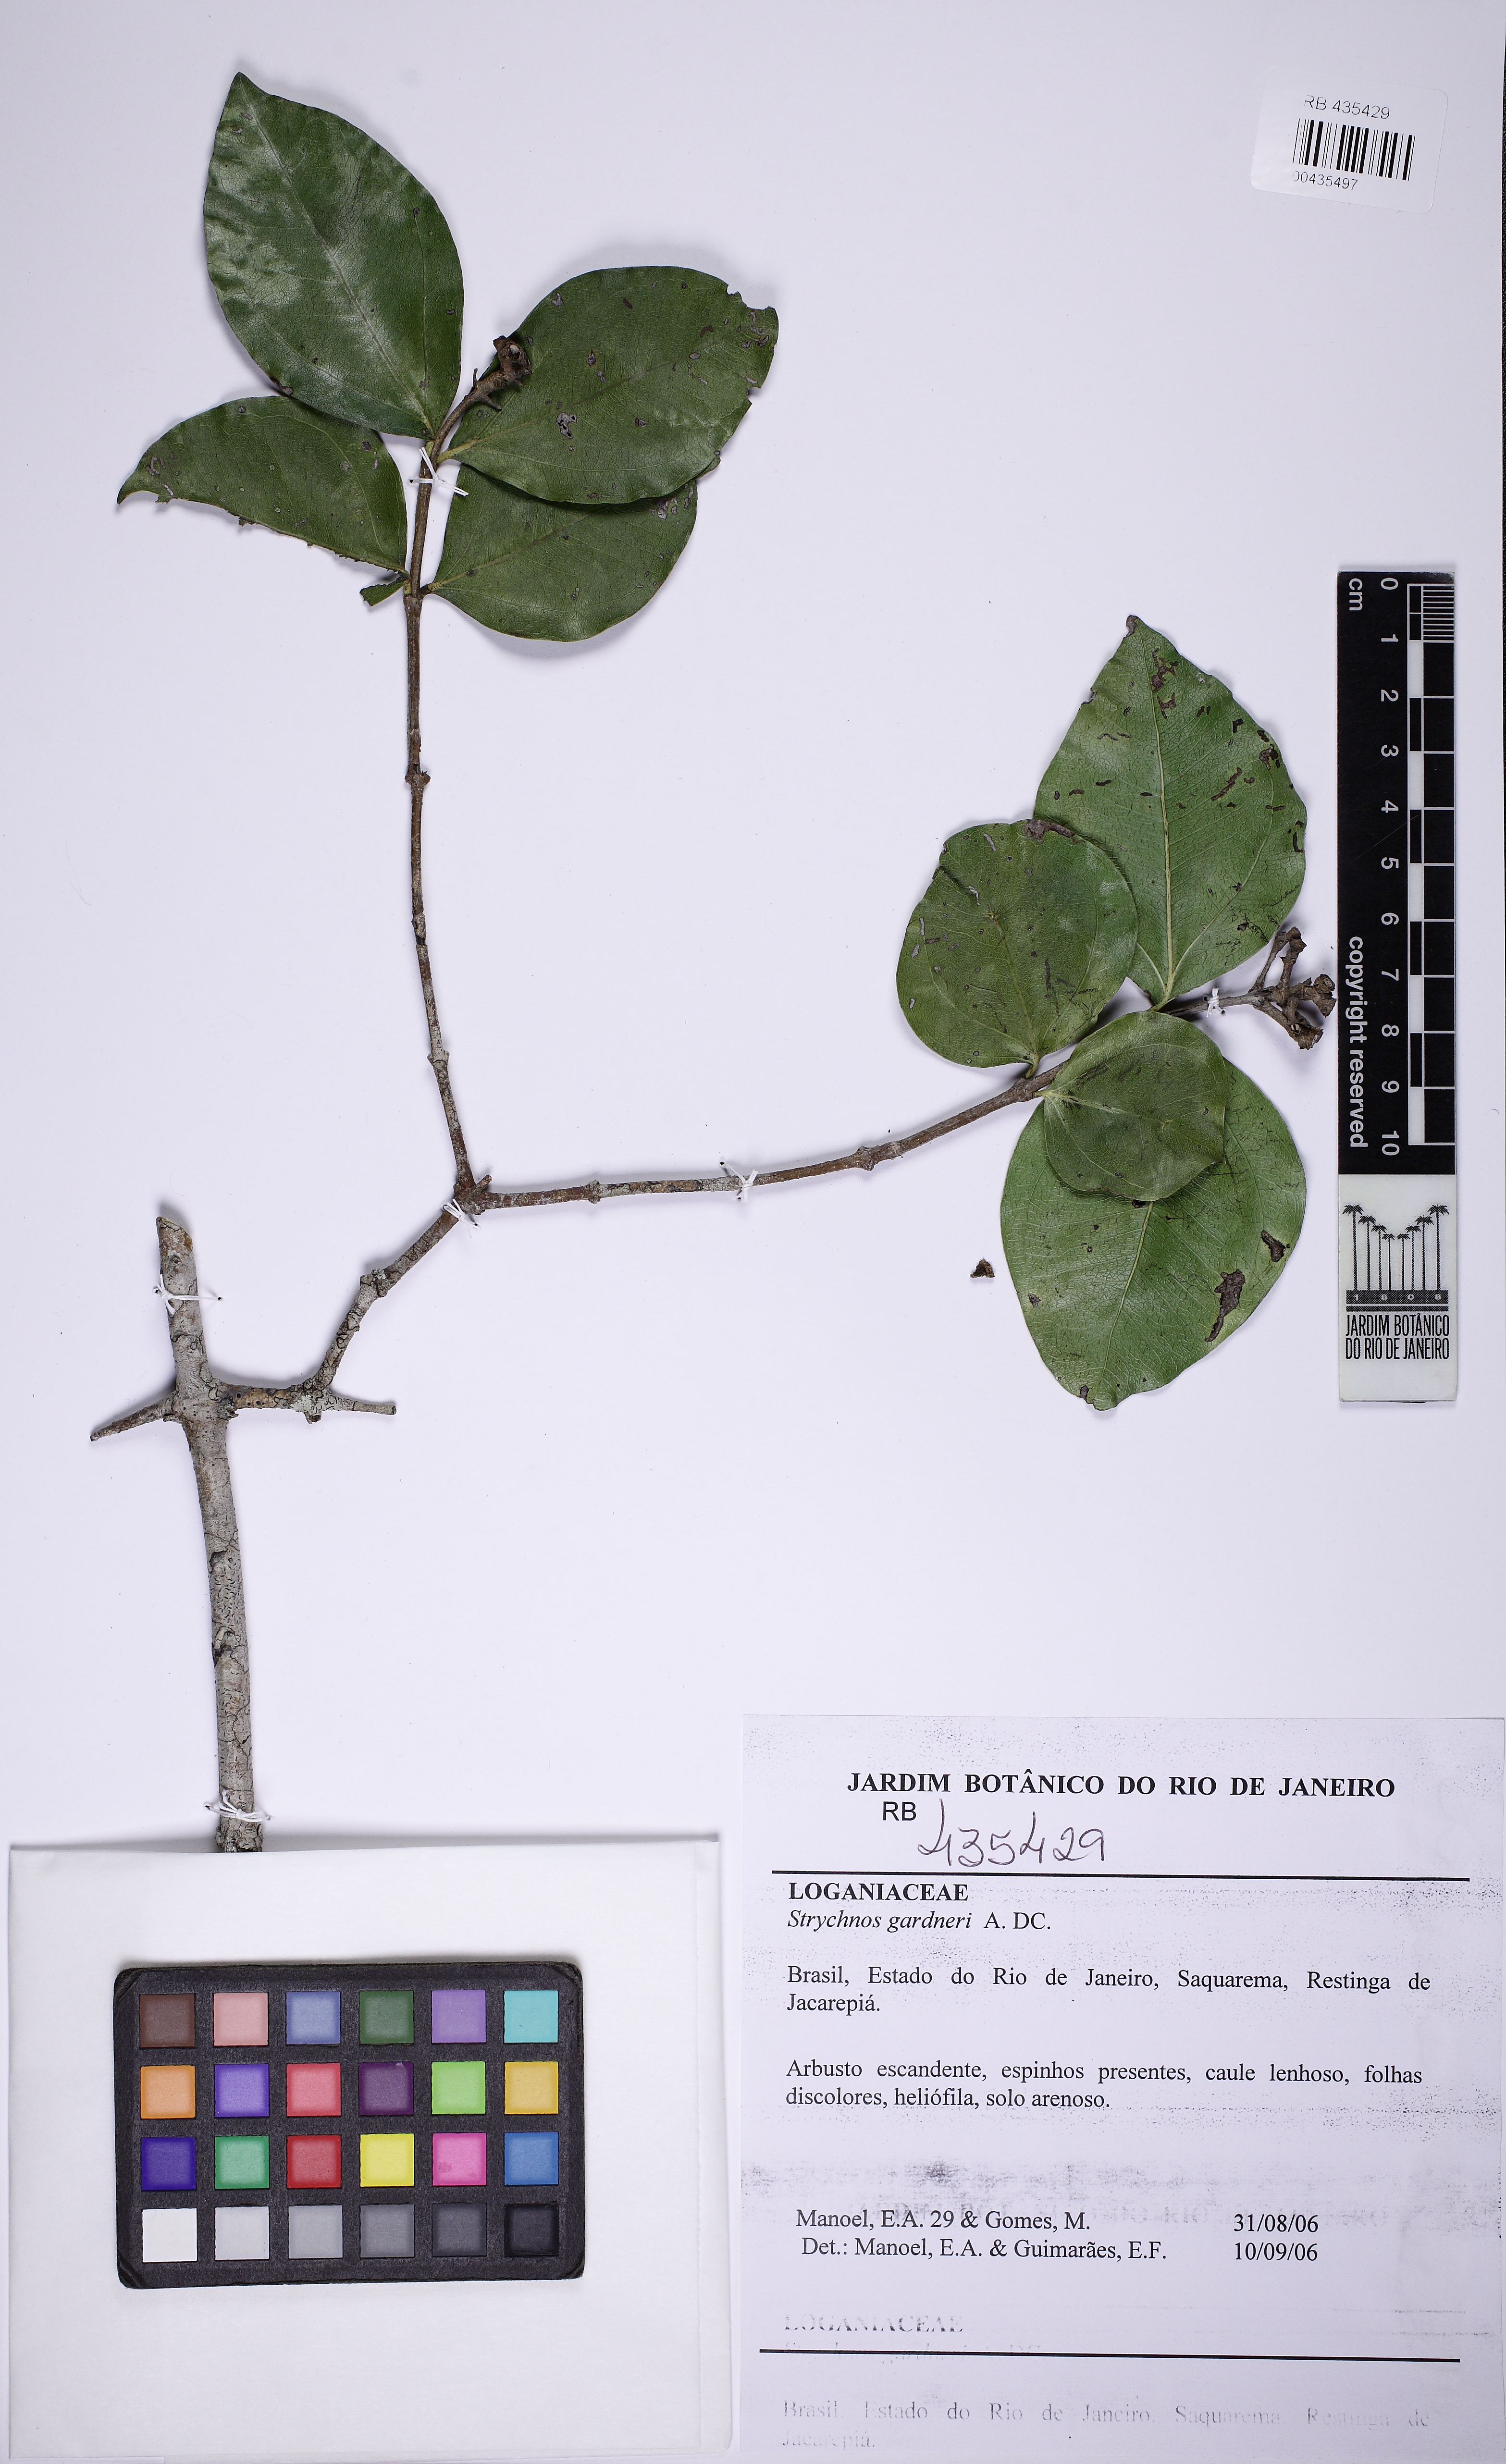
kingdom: Plantae
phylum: Tracheophyta
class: Magnoliopsida
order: Gentianales
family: Loganiaceae
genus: Strychnos
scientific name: Strychnos gardneri
